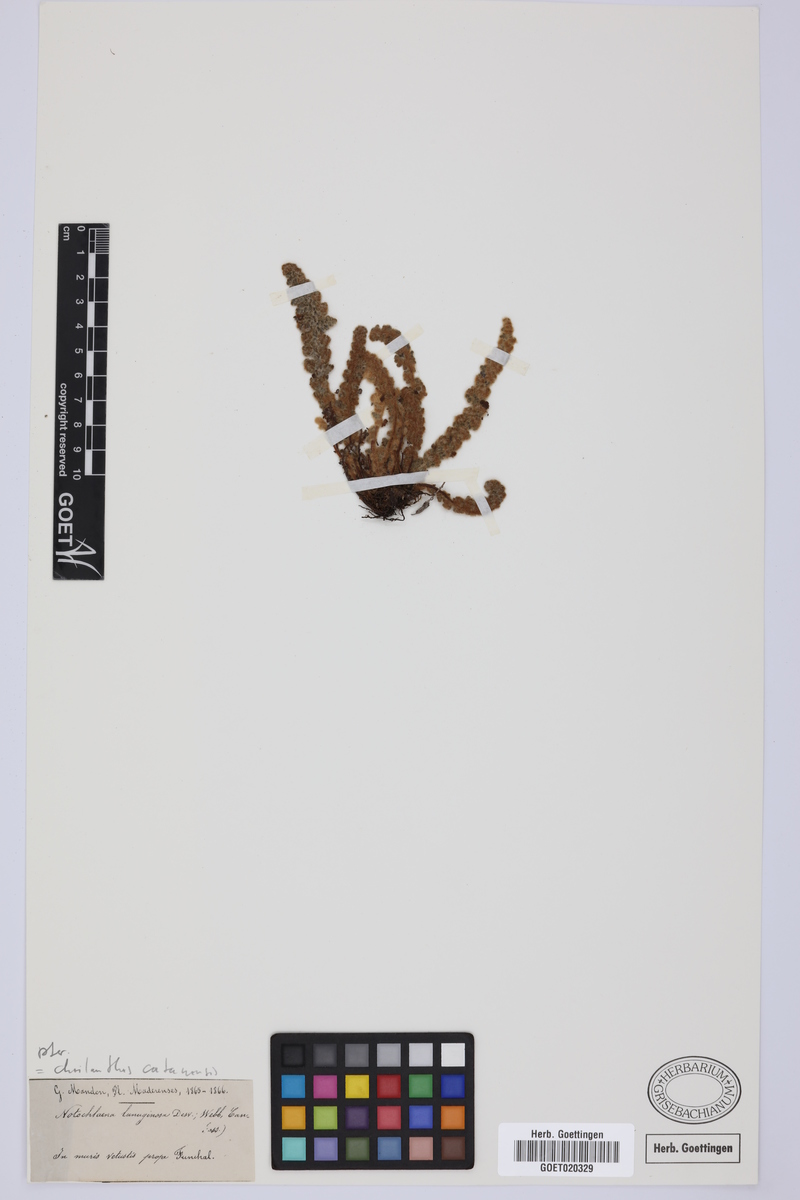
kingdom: Plantae
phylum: Tracheophyta
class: Polypodiopsida
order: Polypodiales
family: Pteridaceae
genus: Cosentinia
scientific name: Cosentinia vellea
